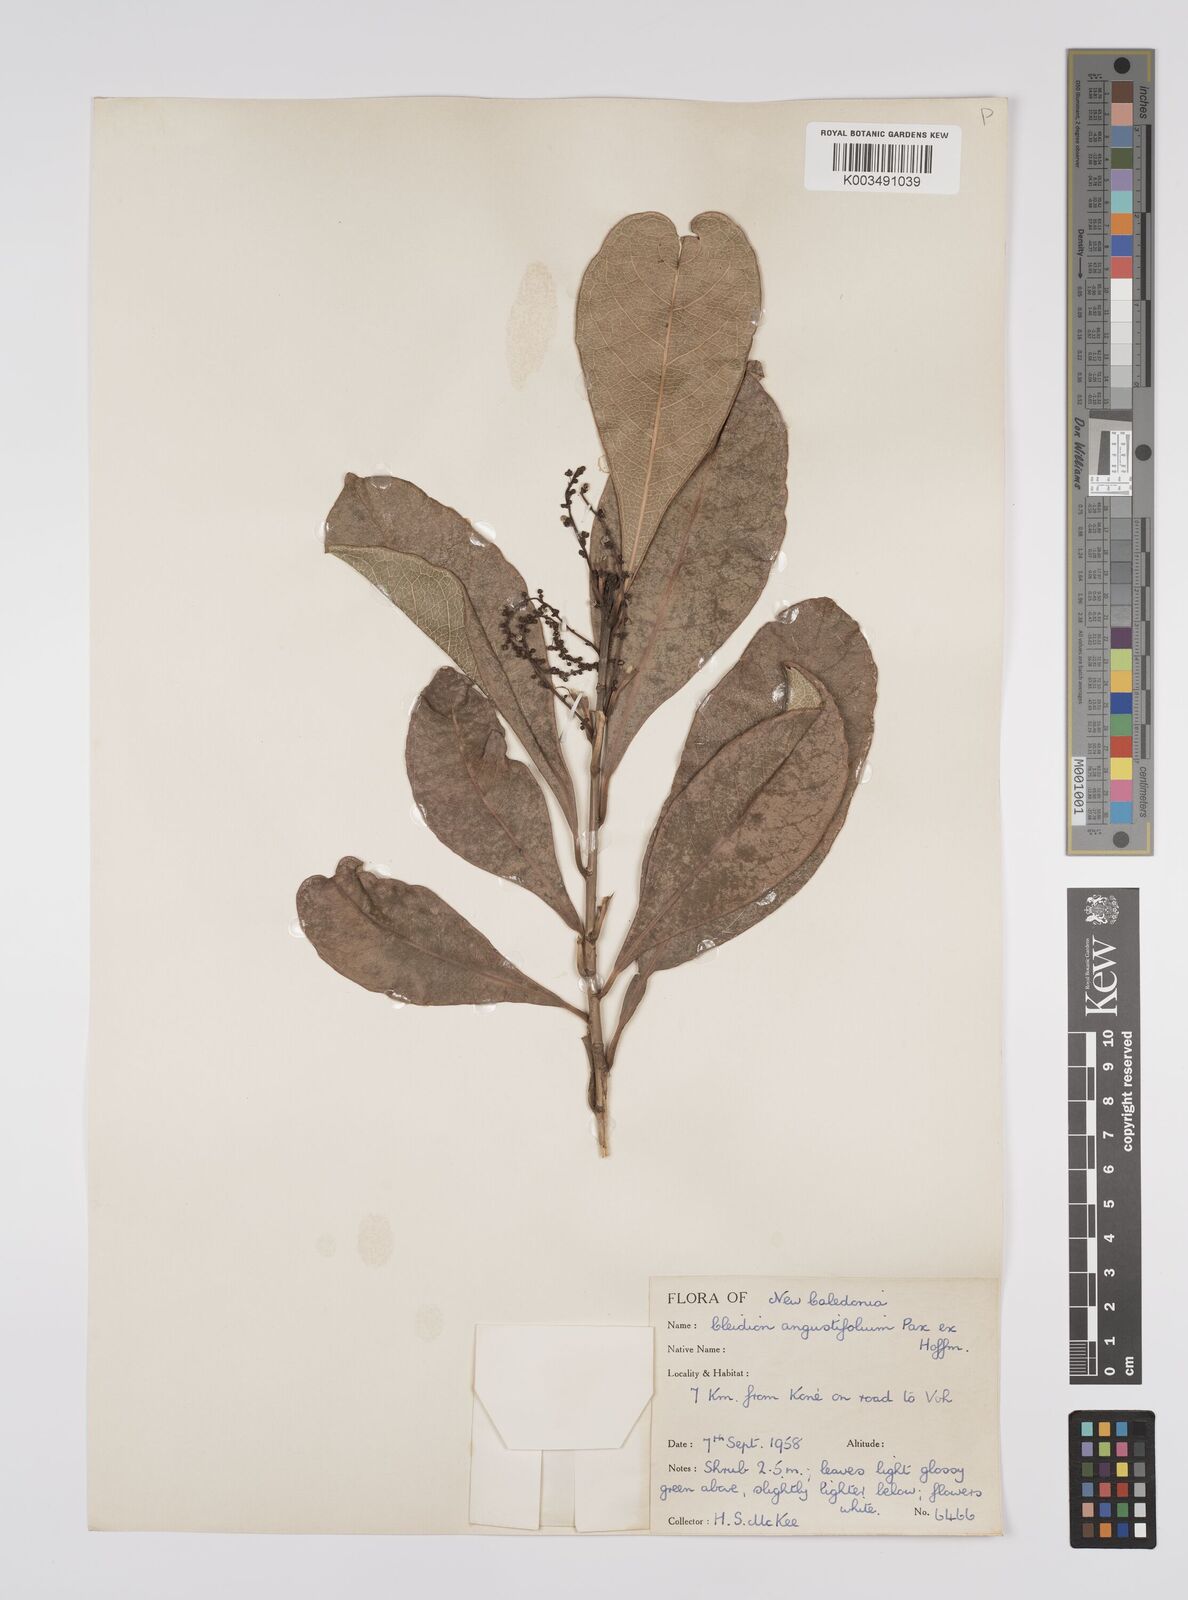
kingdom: Plantae
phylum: Tracheophyta
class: Magnoliopsida
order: Malpighiales
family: Euphorbiaceae
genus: Cleidion
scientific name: Cleidion vieillardii
